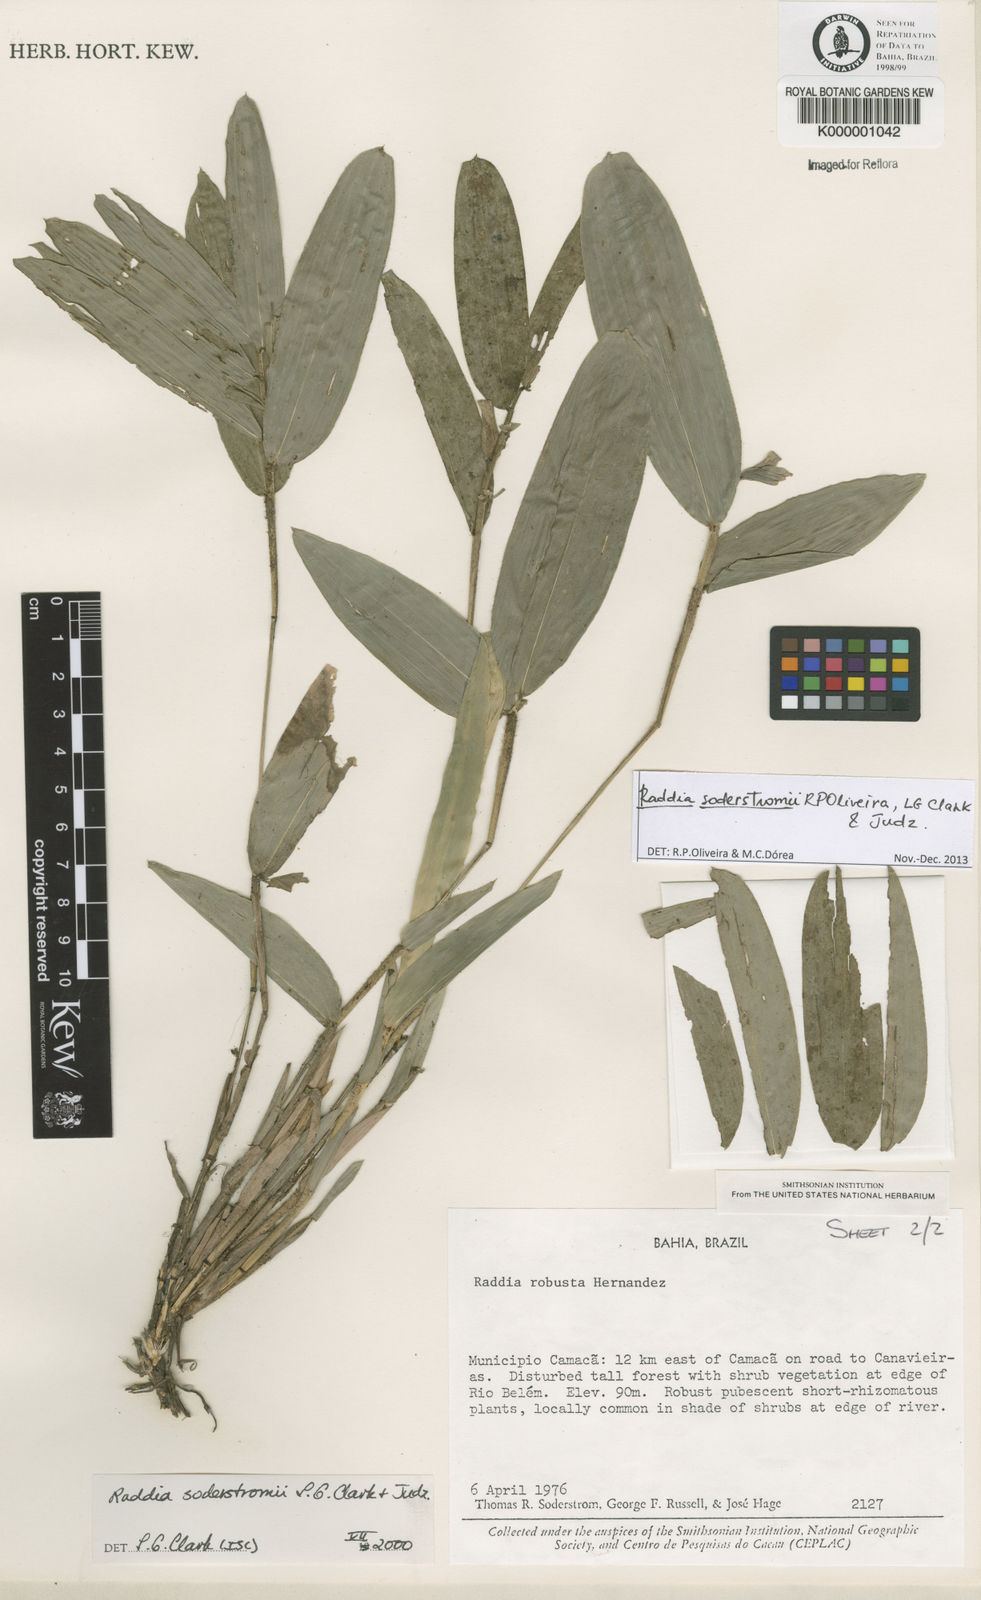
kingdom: Plantae
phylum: Tracheophyta
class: Liliopsida
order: Poales
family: Poaceae
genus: Raddia
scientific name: Raddia
